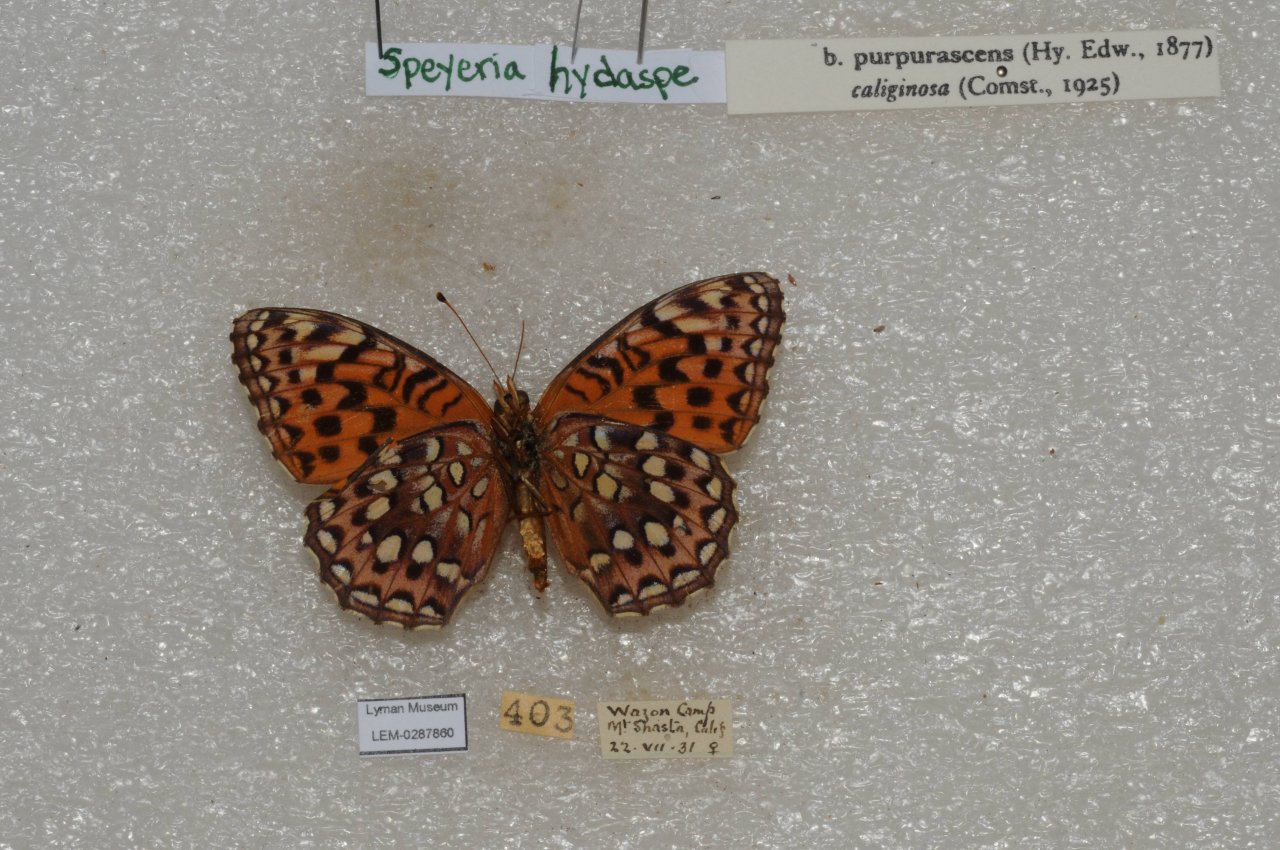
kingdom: Animalia
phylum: Arthropoda
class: Insecta
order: Lepidoptera
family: Nymphalidae
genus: Speyeria
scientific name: Speyeria hydaspe
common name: Hydaspe Fritillary
